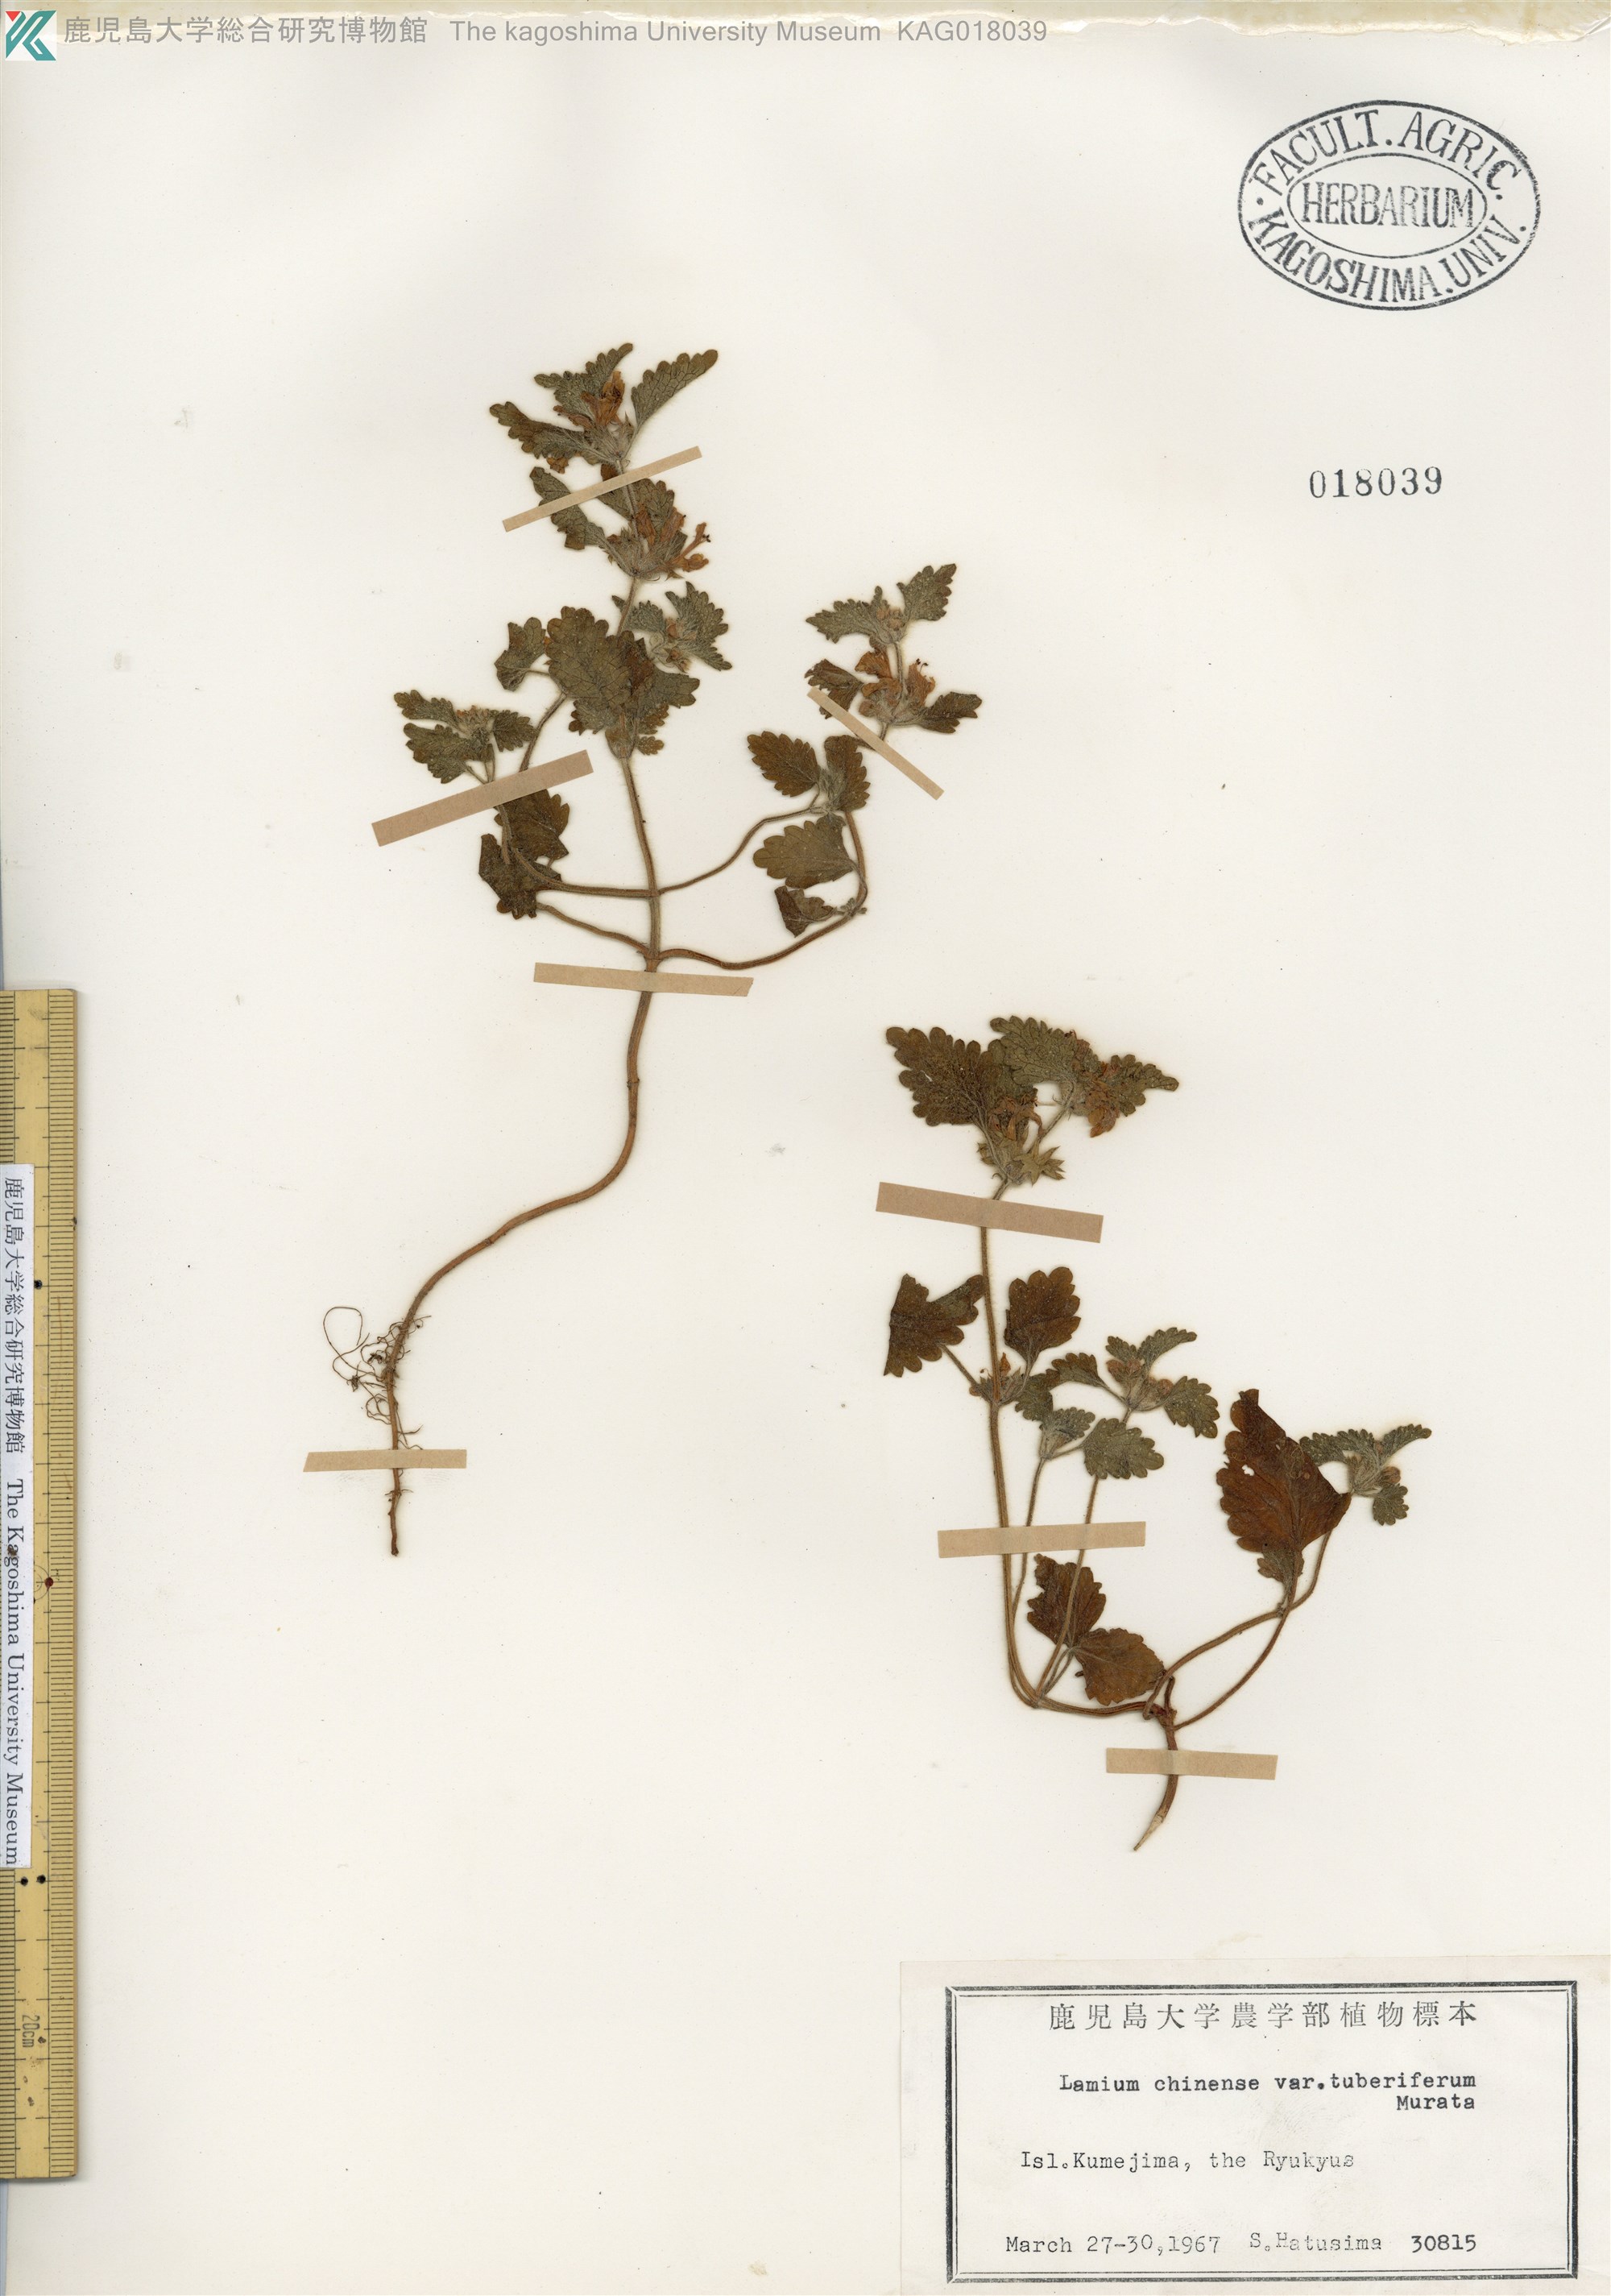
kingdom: Plantae
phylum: Tracheophyta
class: Magnoliopsida
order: Lamiales
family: Lamiaceae
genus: Matsumurella
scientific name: Matsumurella tuberifera
